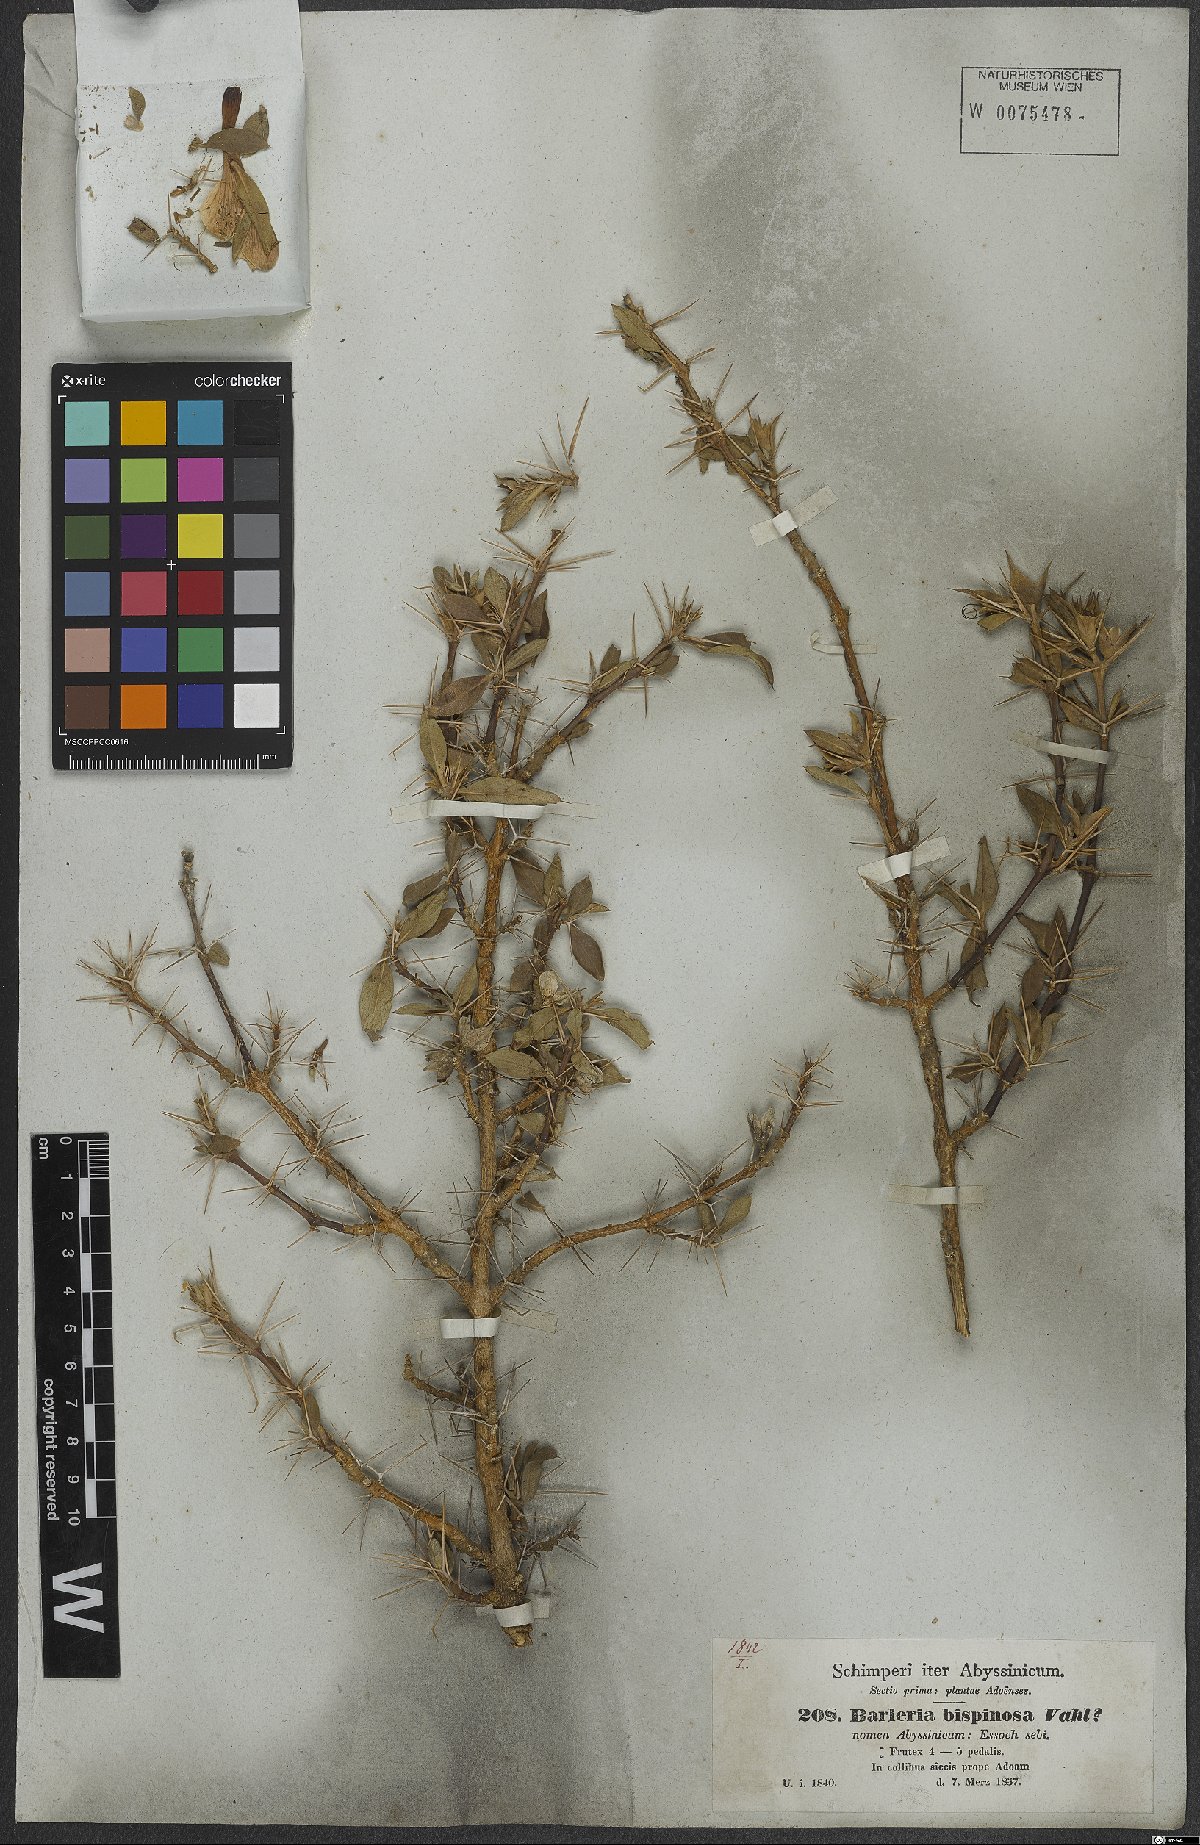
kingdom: Plantae
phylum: Tracheophyta
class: Magnoliopsida
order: Lamiales
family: Acanthaceae
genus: Barleria
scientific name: Barleria bispinosa
